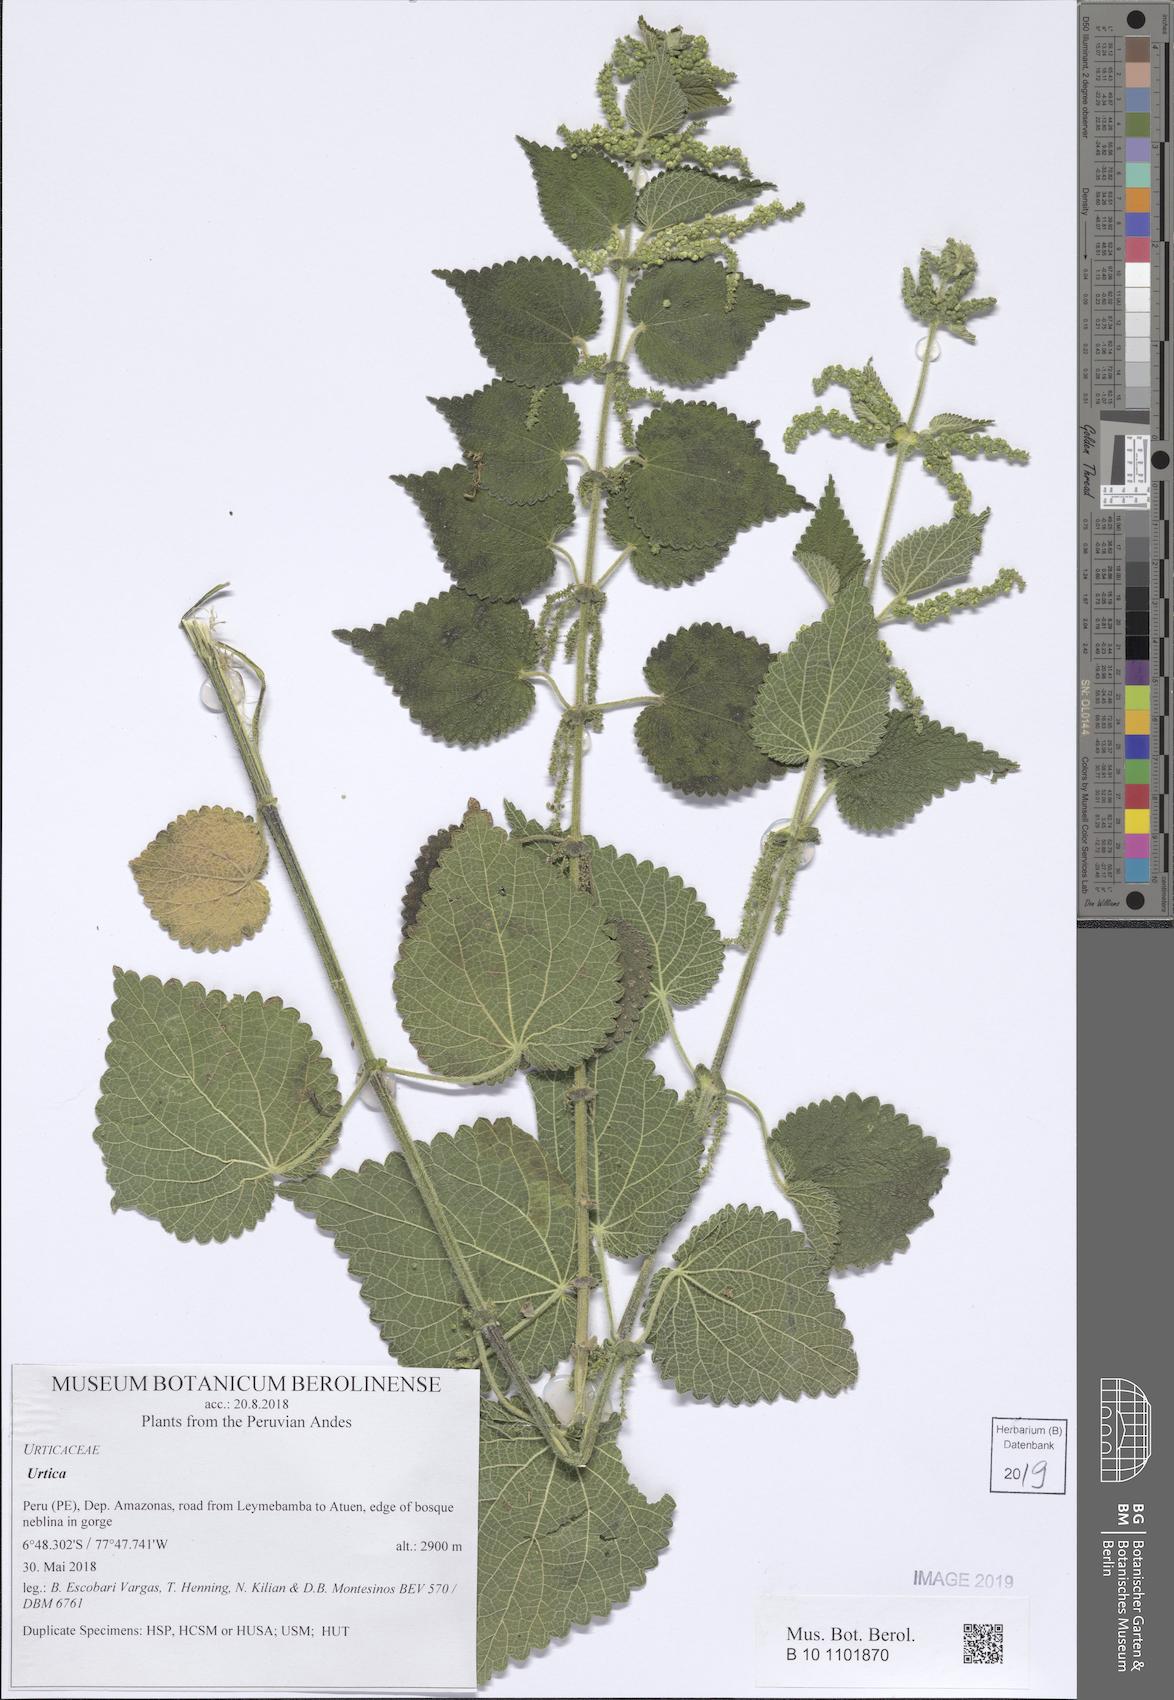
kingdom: Plantae
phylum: Tracheophyta
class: Magnoliopsida
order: Rosales
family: Urticaceae
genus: Urtica
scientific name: Urtica
